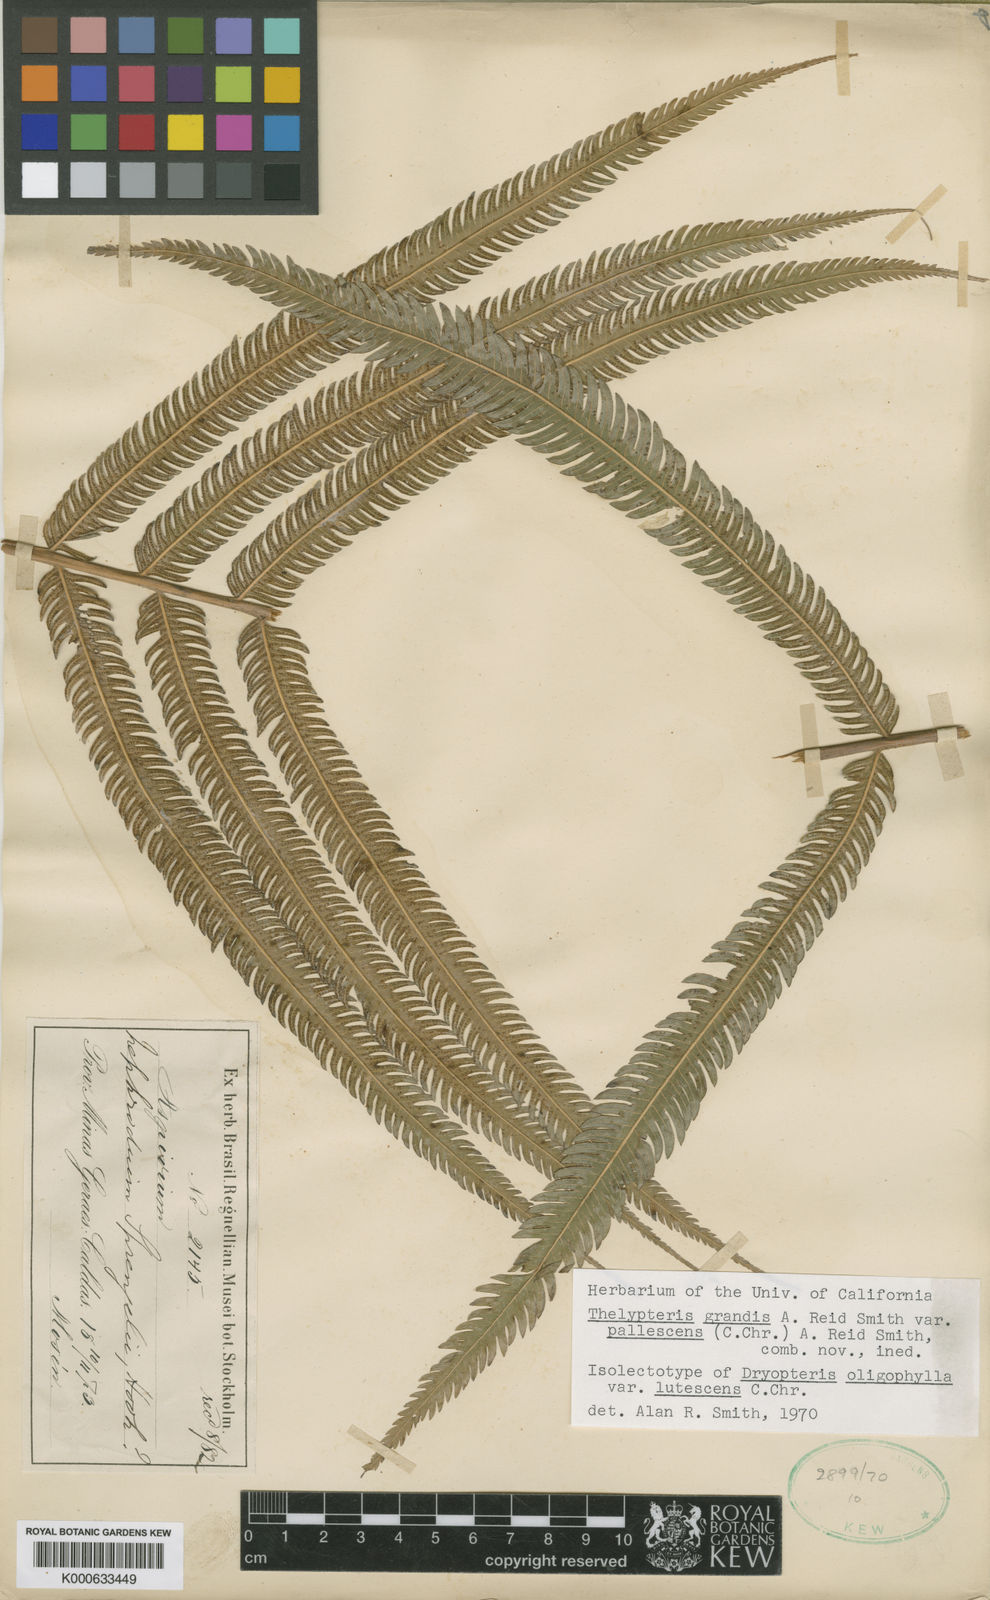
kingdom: Plantae
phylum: Tracheophyta
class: Polypodiopsida
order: Polypodiales
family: Thelypteridaceae
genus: Christella
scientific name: Christella
